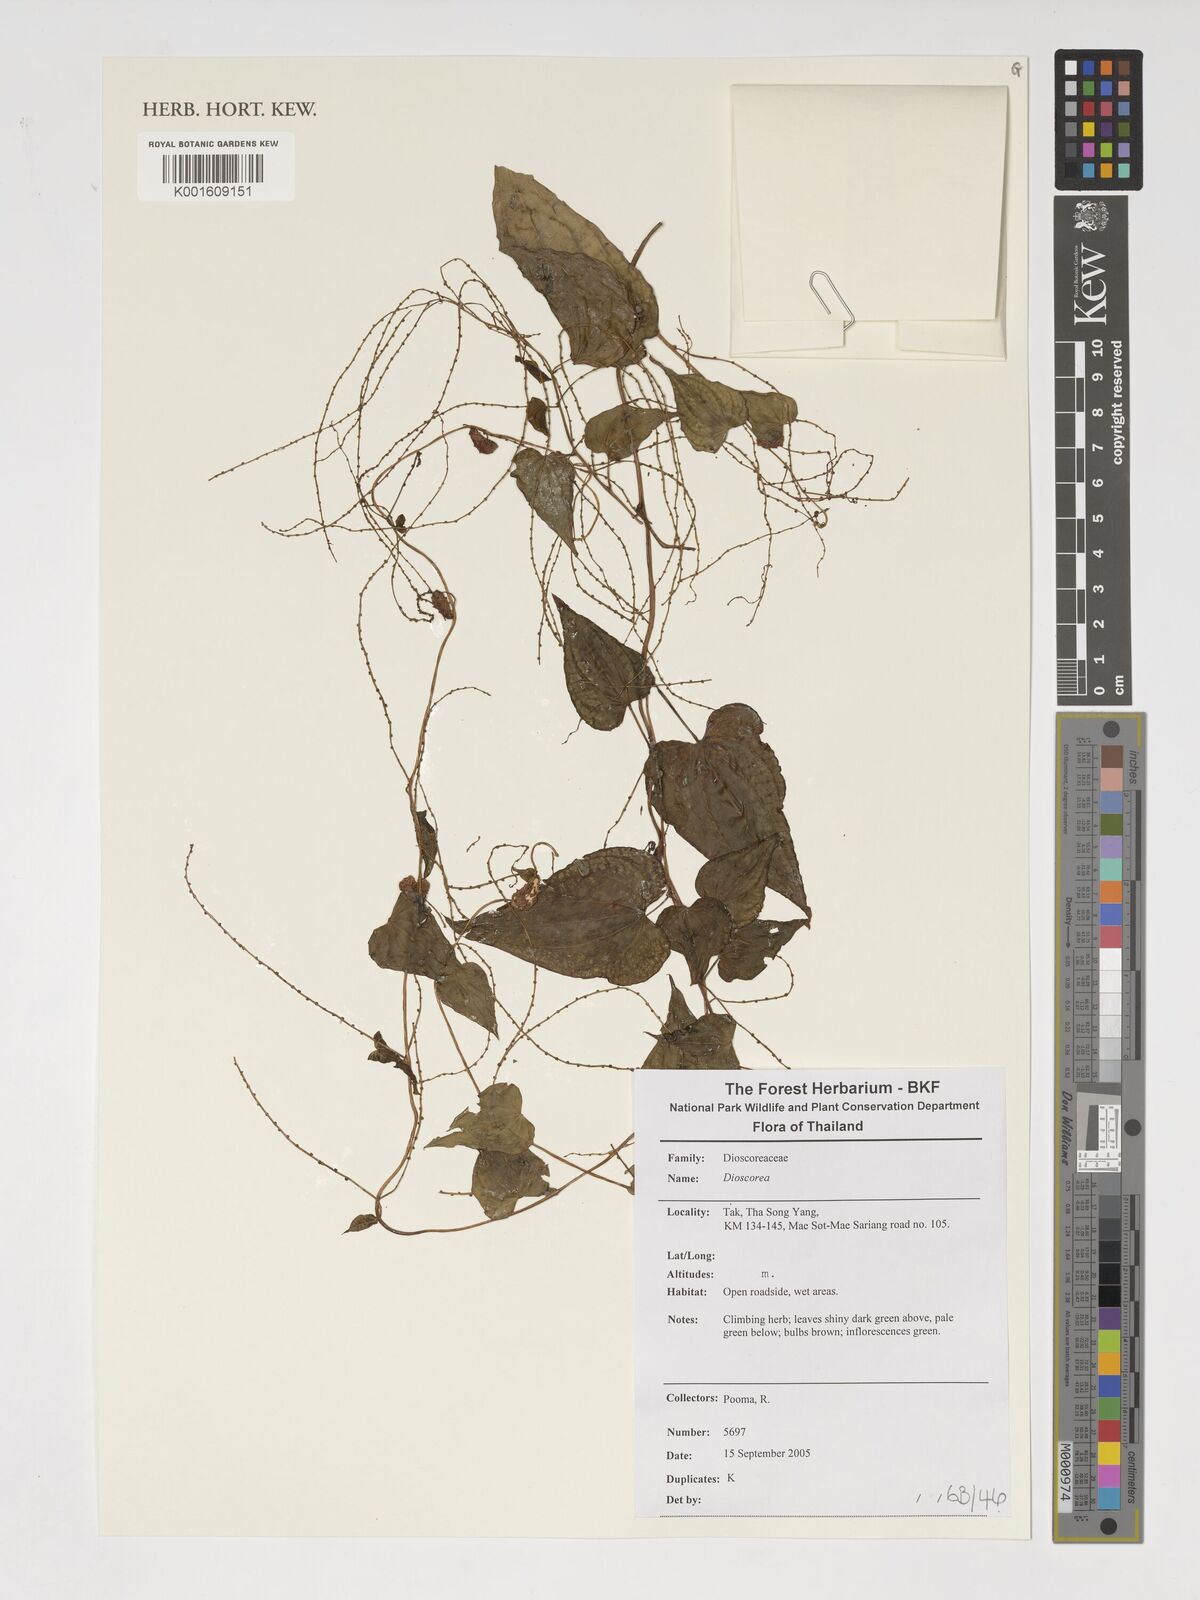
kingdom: Plantae
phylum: Tracheophyta
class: Liliopsida
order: Dioscoreales
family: Dioscoreaceae
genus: Dioscorea
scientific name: Dioscorea
